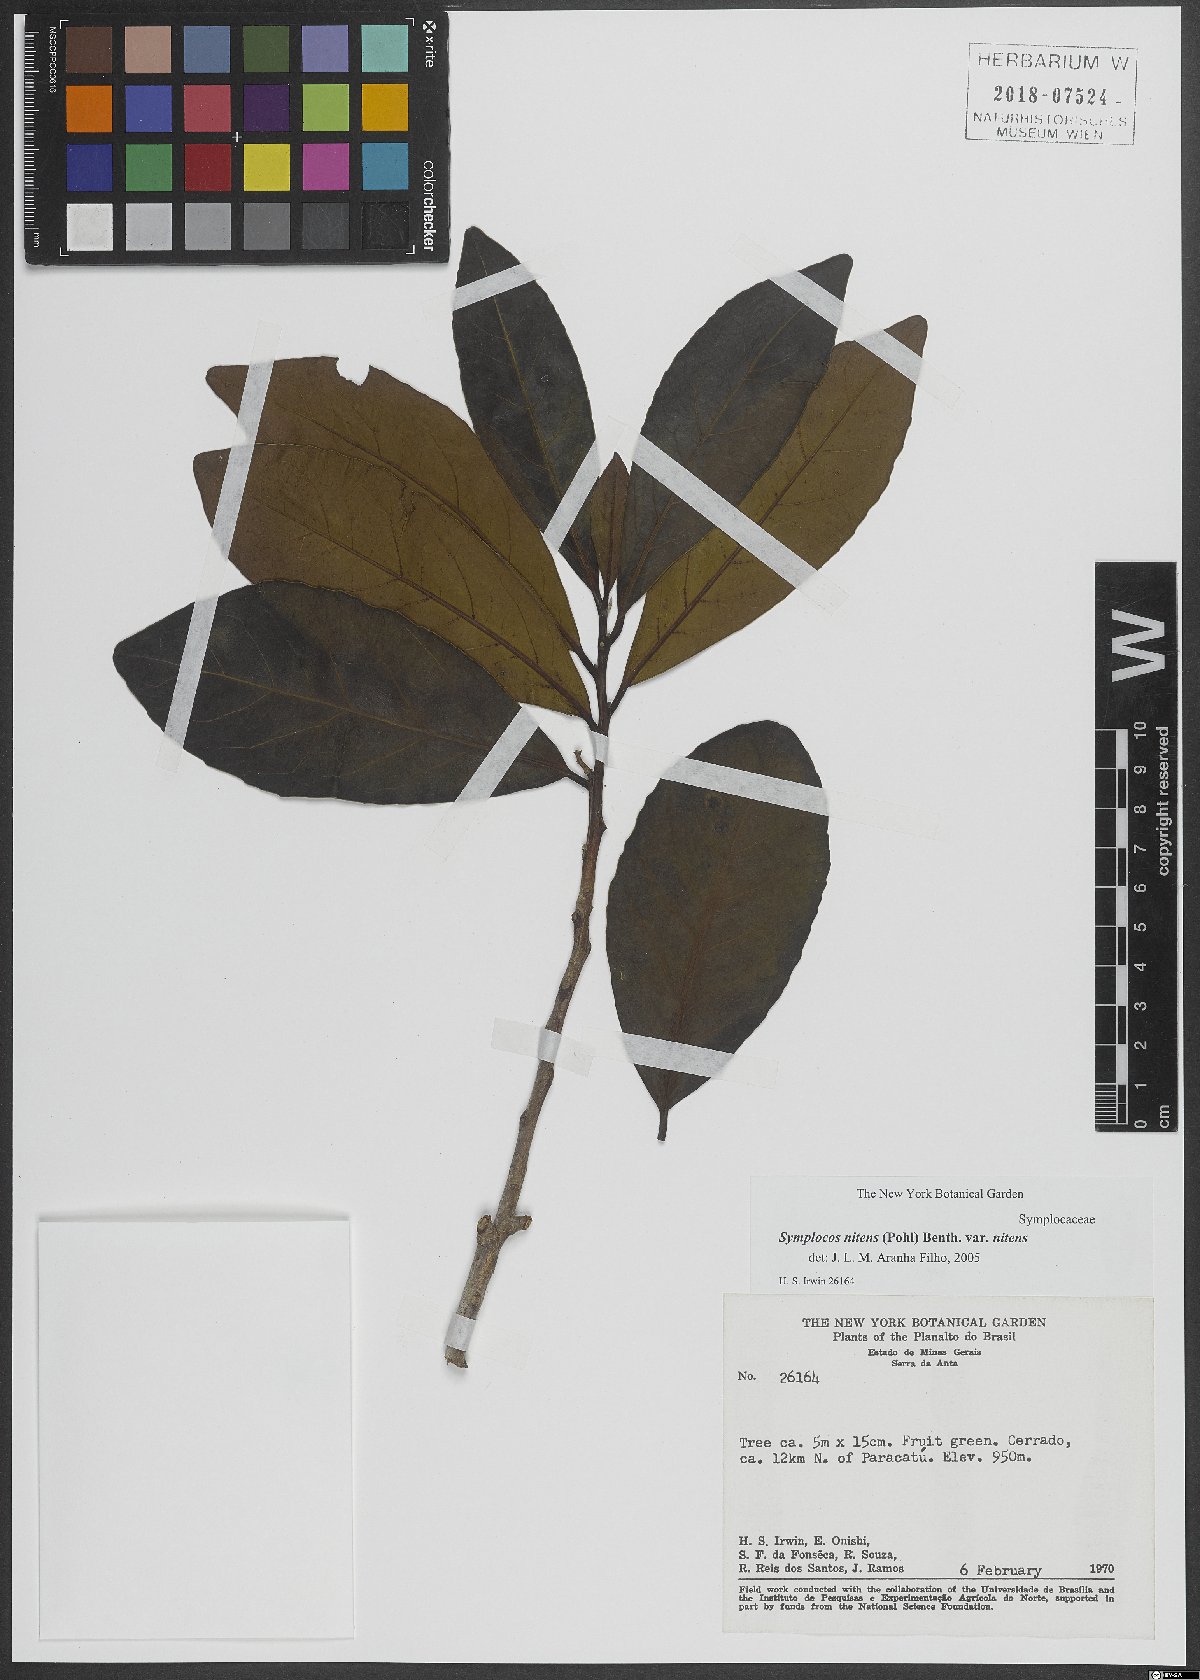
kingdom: Plantae
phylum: Tracheophyta
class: Magnoliopsida
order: Ericales
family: Symplocaceae
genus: Symplocos
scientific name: Symplocos nitens
